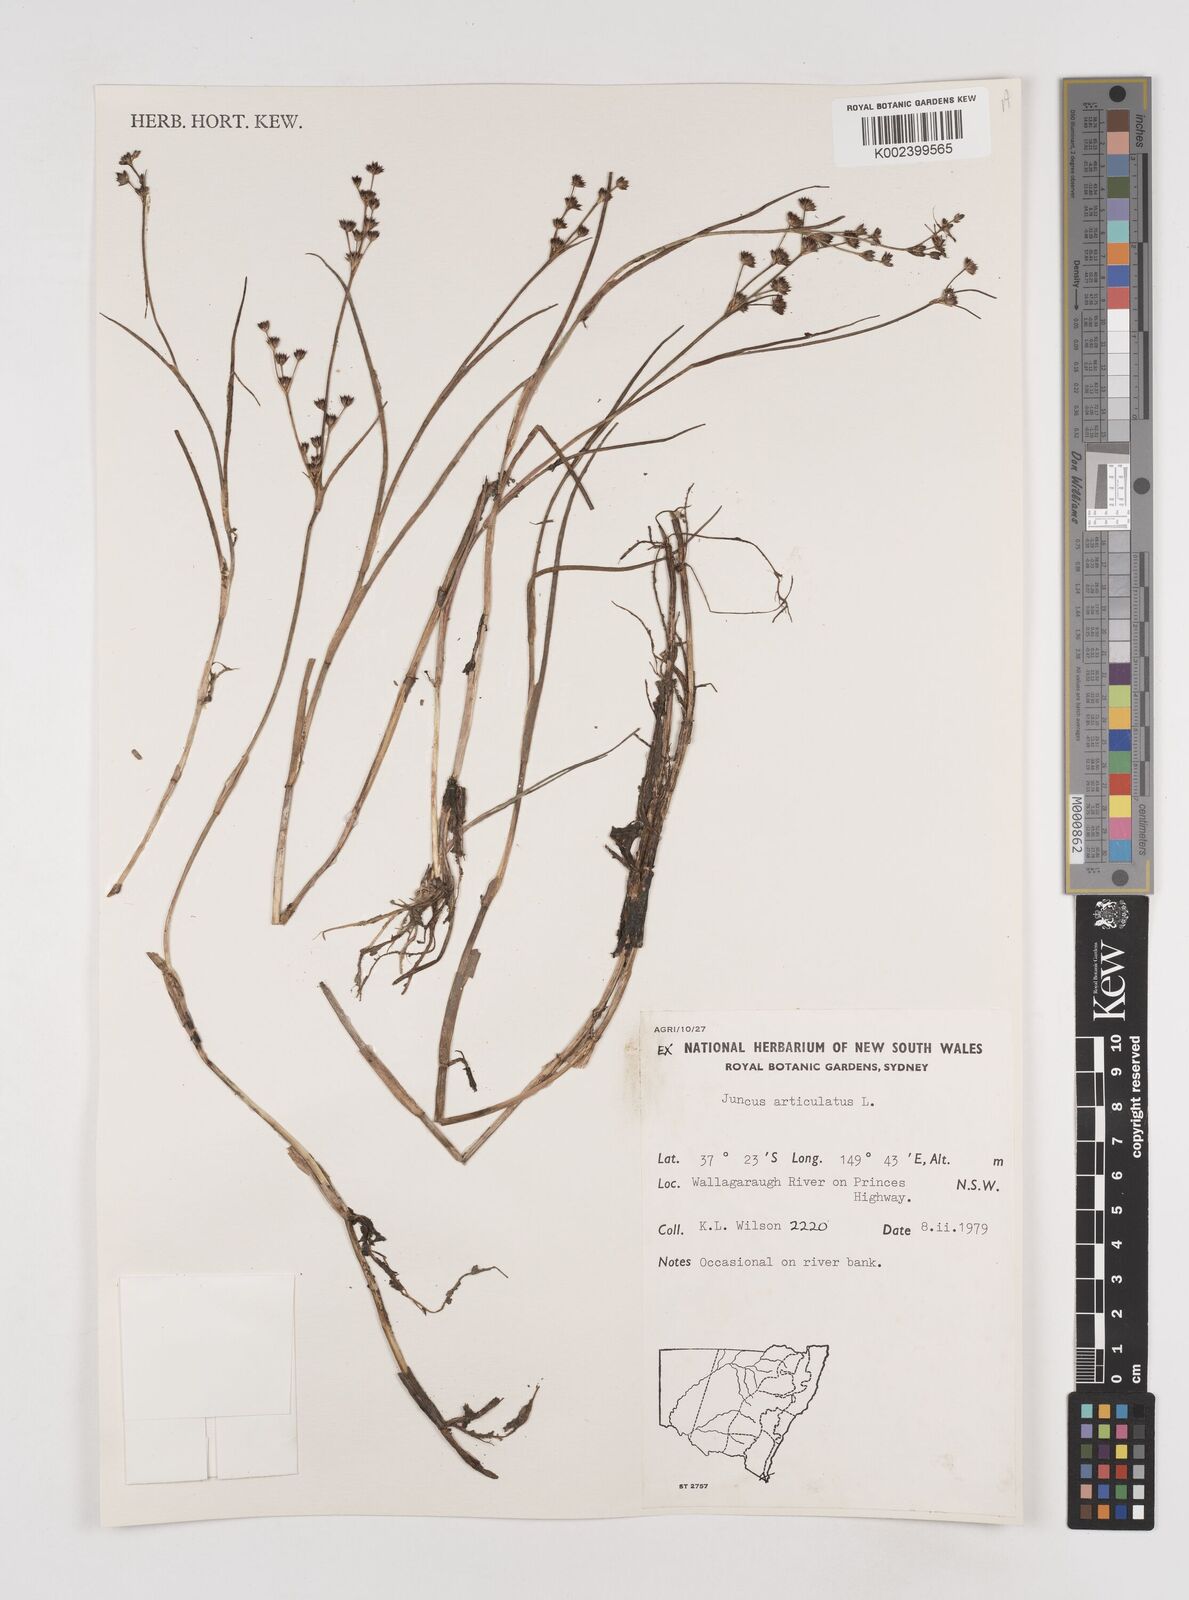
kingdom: Plantae
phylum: Tracheophyta
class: Liliopsida
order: Poales
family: Juncaceae
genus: Juncus
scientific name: Juncus articulatus
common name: Jointed rush
